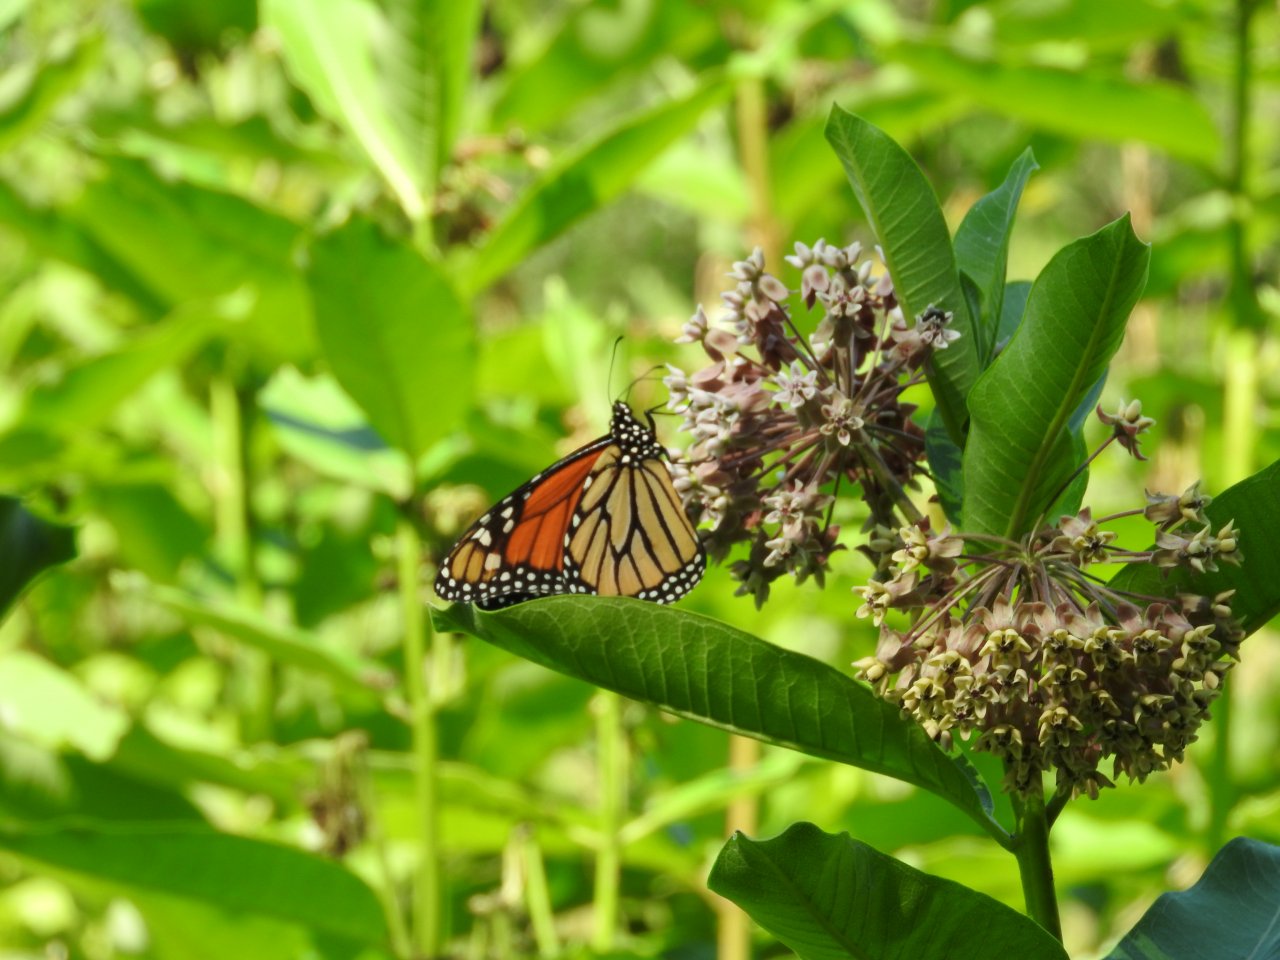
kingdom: Animalia
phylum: Arthropoda
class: Insecta
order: Lepidoptera
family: Nymphalidae
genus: Danaus
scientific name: Danaus plexippus
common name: Monarch
